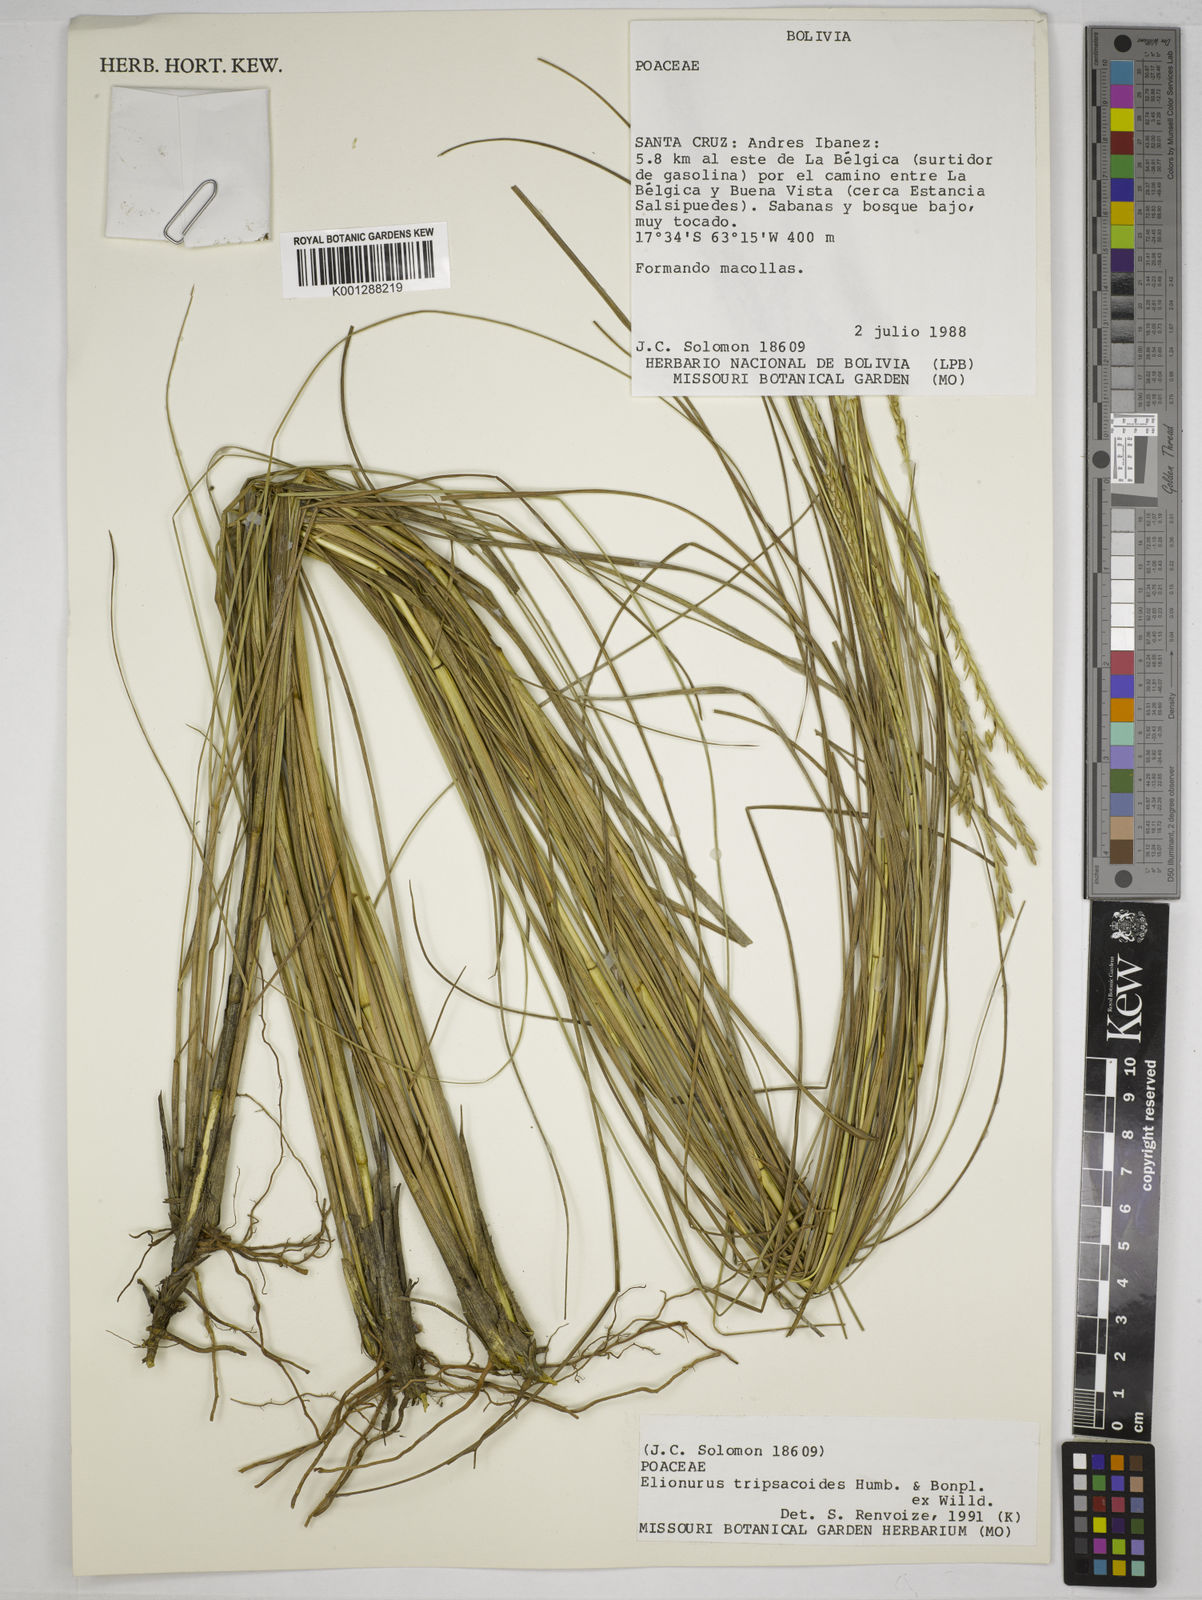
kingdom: Plantae
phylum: Tracheophyta
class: Liliopsida
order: Poales
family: Poaceae
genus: Elionurus
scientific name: Elionurus tripsacoides
